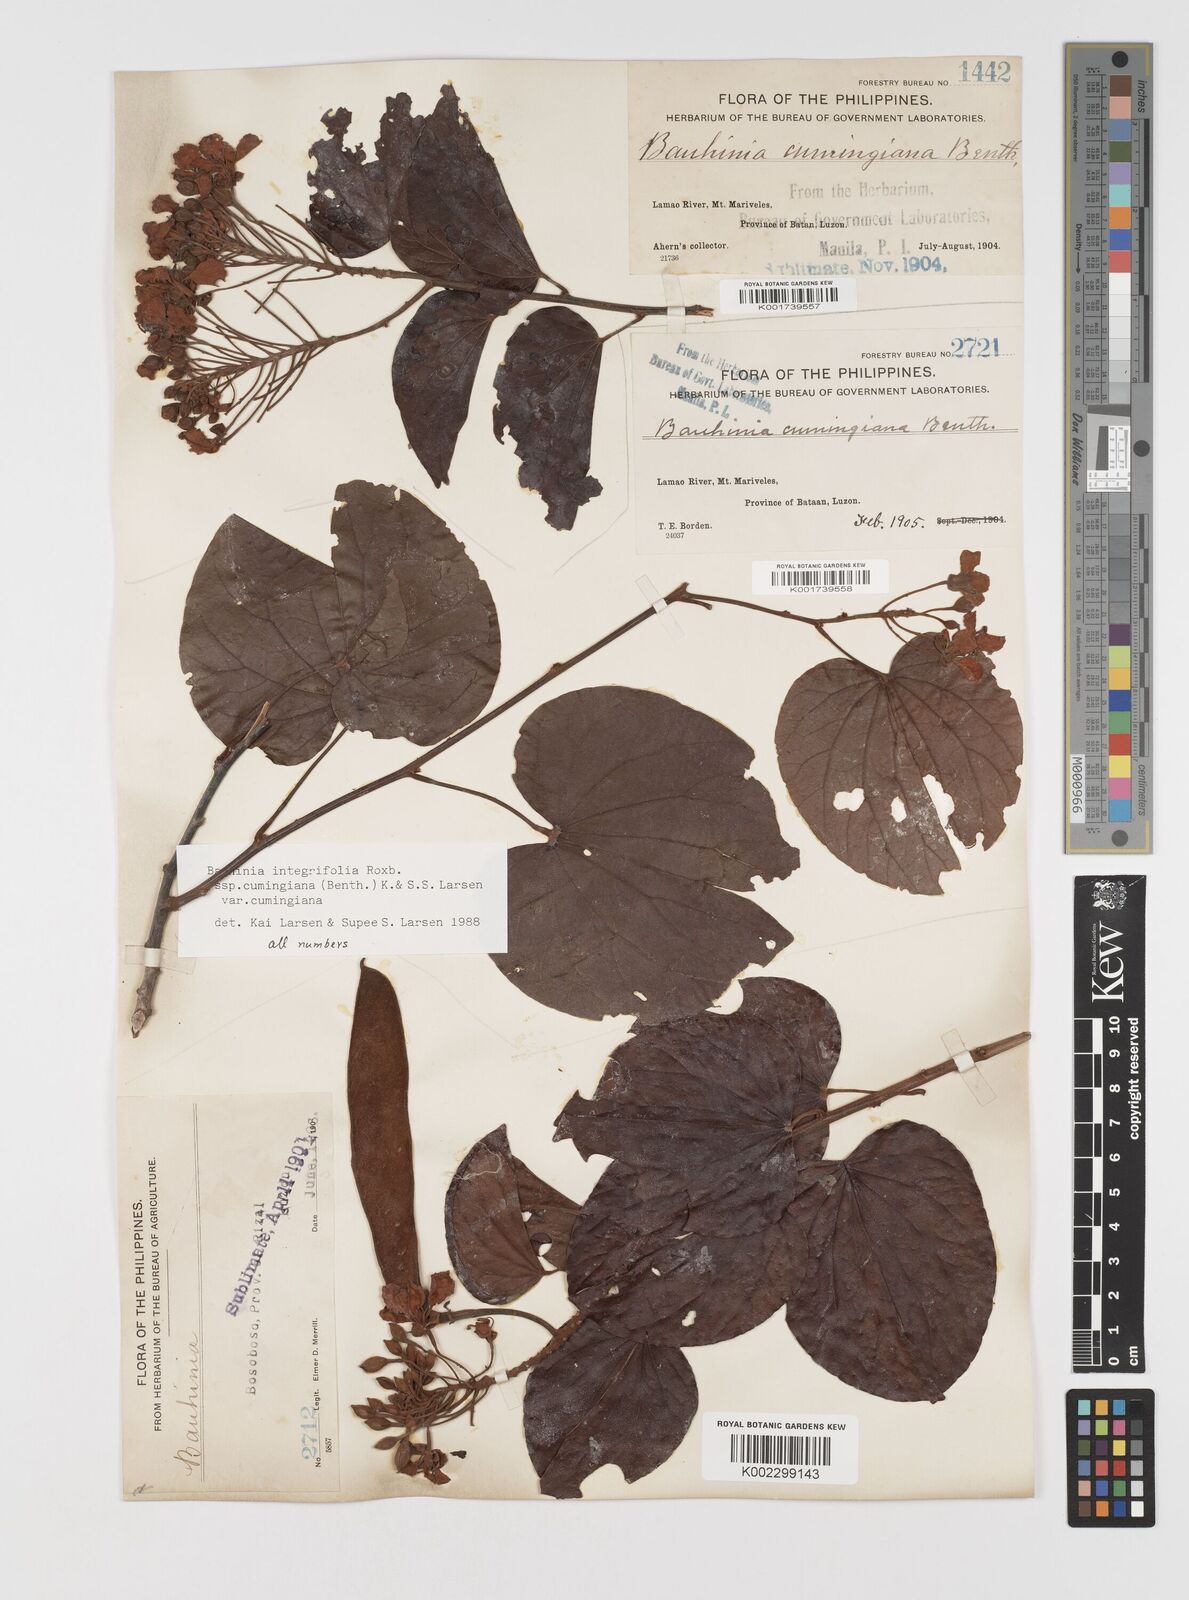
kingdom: Plantae
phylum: Tracheophyta
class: Magnoliopsida
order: Fabales
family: Fabaceae
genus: Phanera
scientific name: Phanera integrifolia
